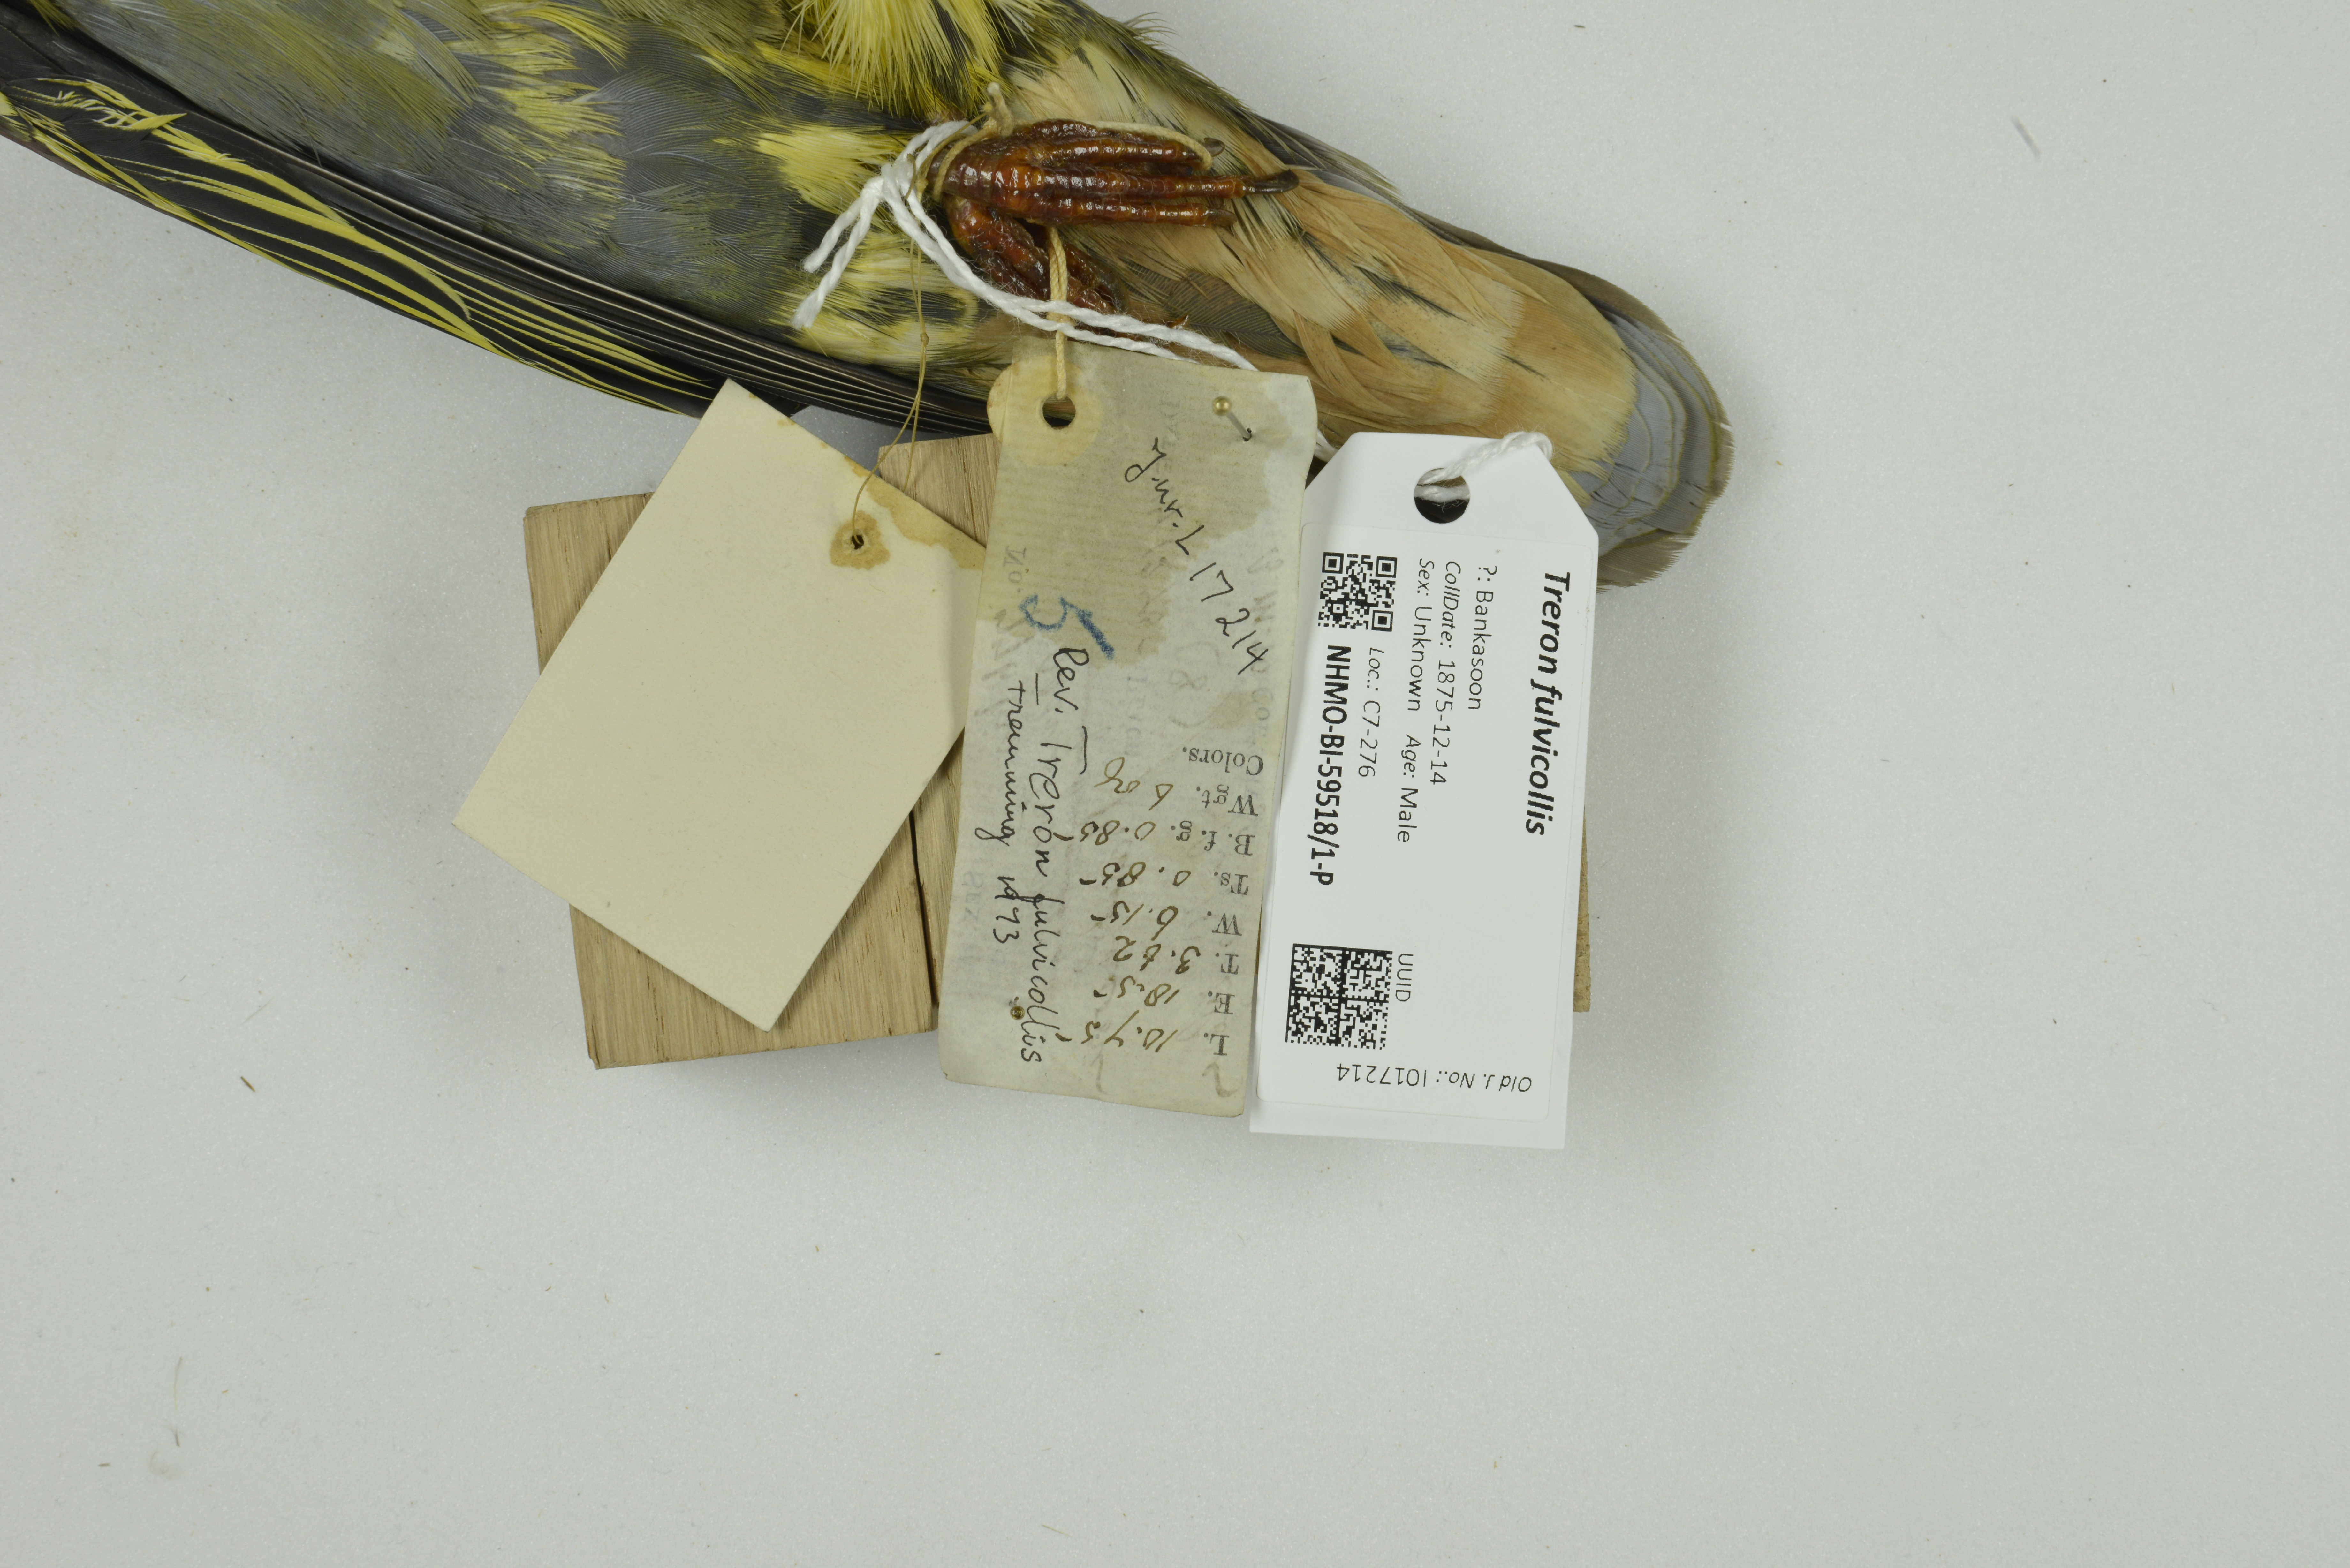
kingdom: Animalia
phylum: Chordata
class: Aves
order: Columbiformes
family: Columbidae
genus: Treron
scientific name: Treron fulvicollis
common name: Cinnamon-headed green pigeon
